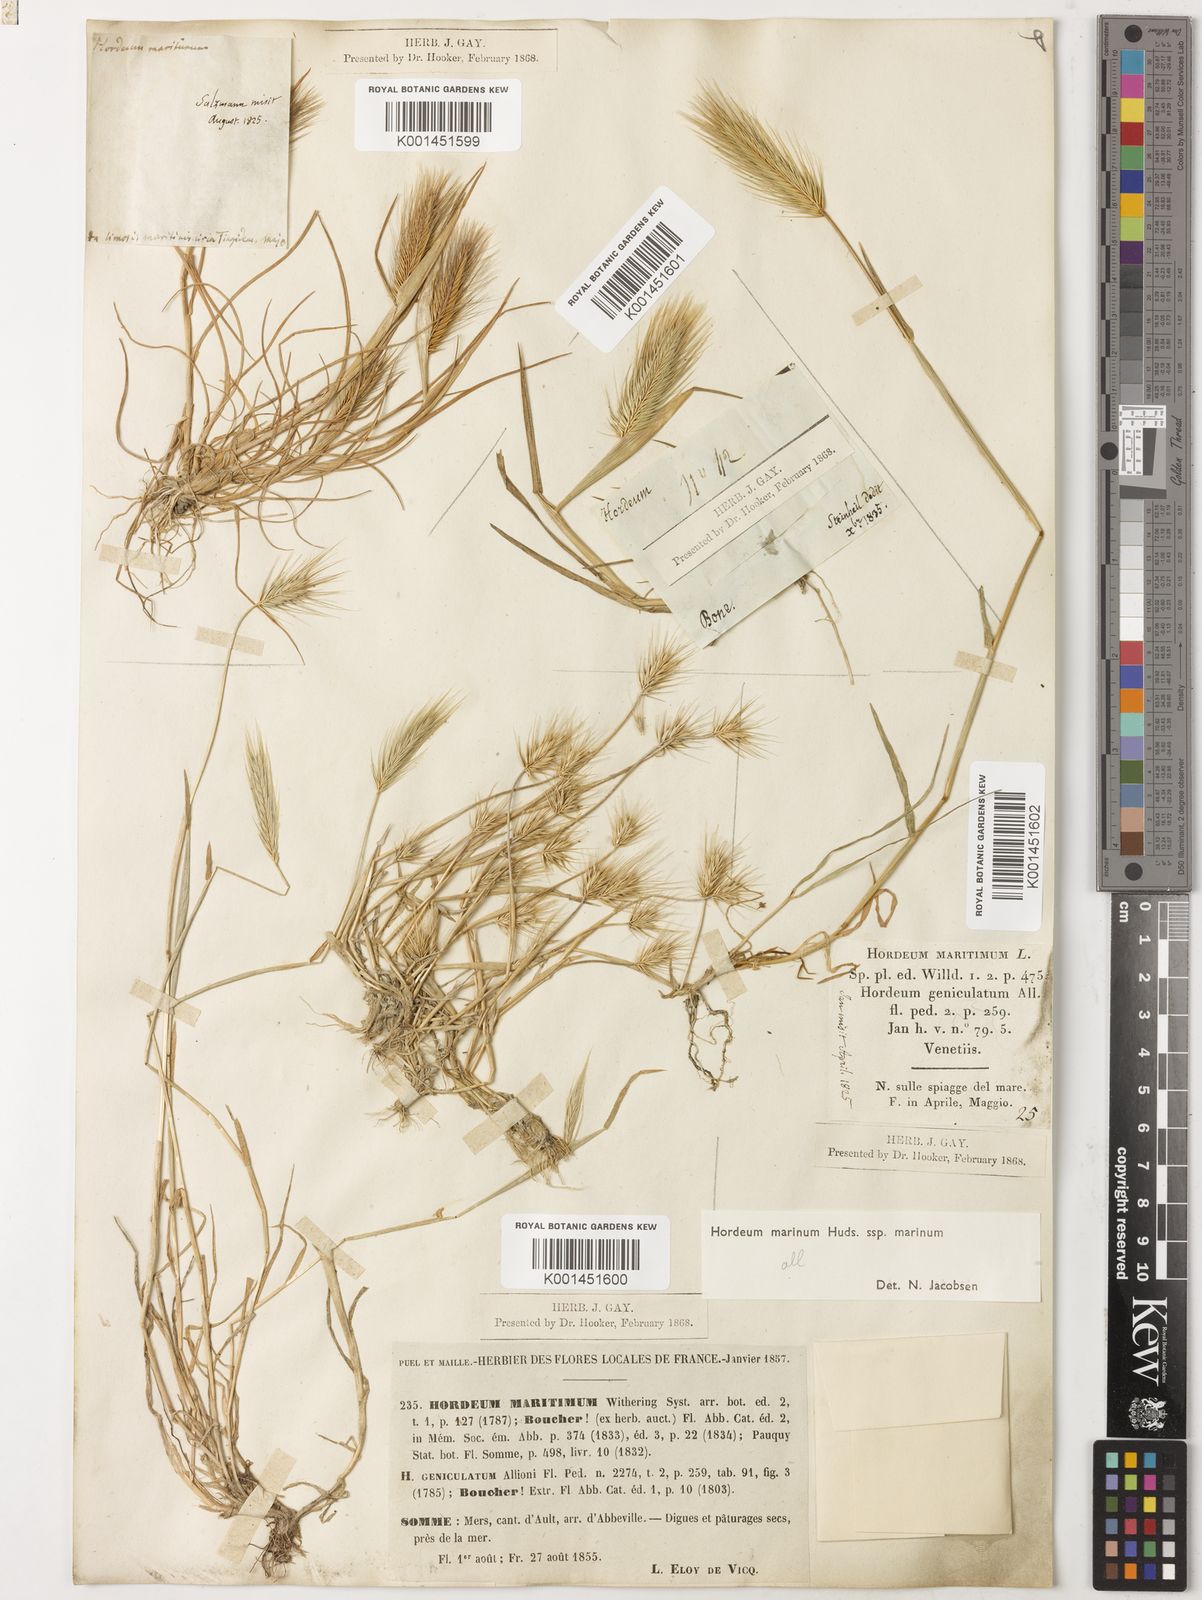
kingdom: Plantae
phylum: Tracheophyta
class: Liliopsida
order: Poales
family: Poaceae
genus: Hordeum
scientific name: Hordeum marinum
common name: Sea barley
